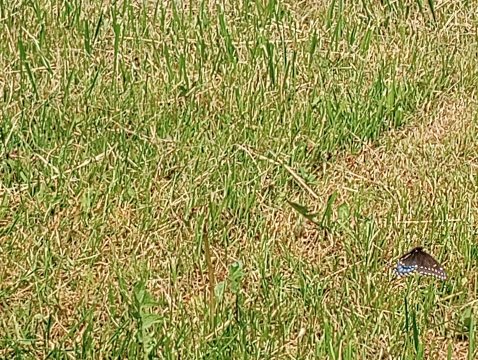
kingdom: Animalia
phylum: Arthropoda
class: Insecta
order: Lepidoptera
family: Papilionidae
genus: Papilio
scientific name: Papilio polyxenes
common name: Black Swallowtail
